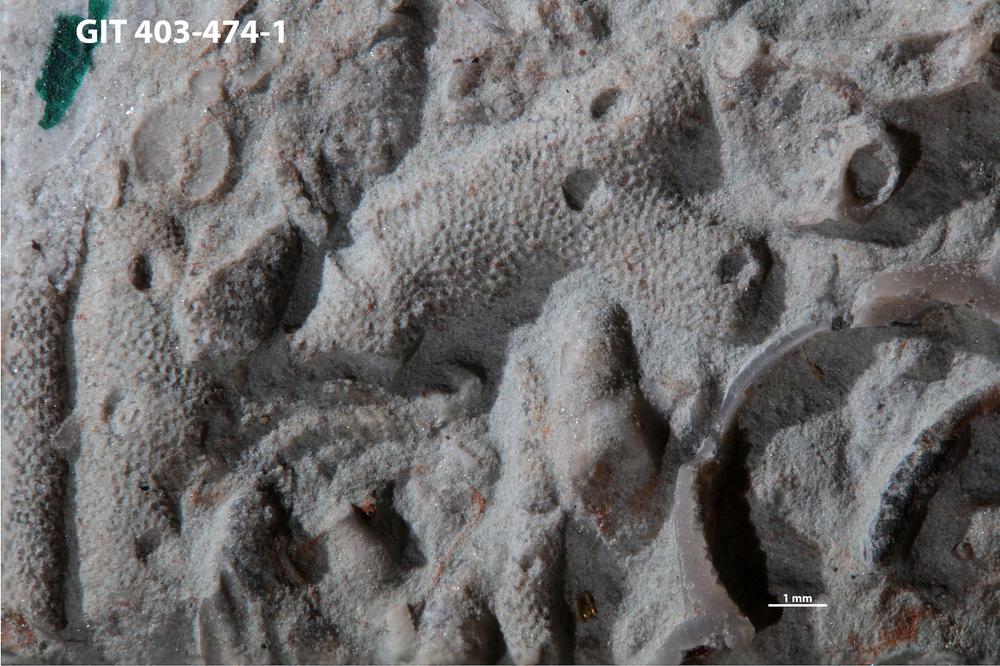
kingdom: Animalia
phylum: Cnidaria
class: Hydrozoa
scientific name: Hydrozoa
